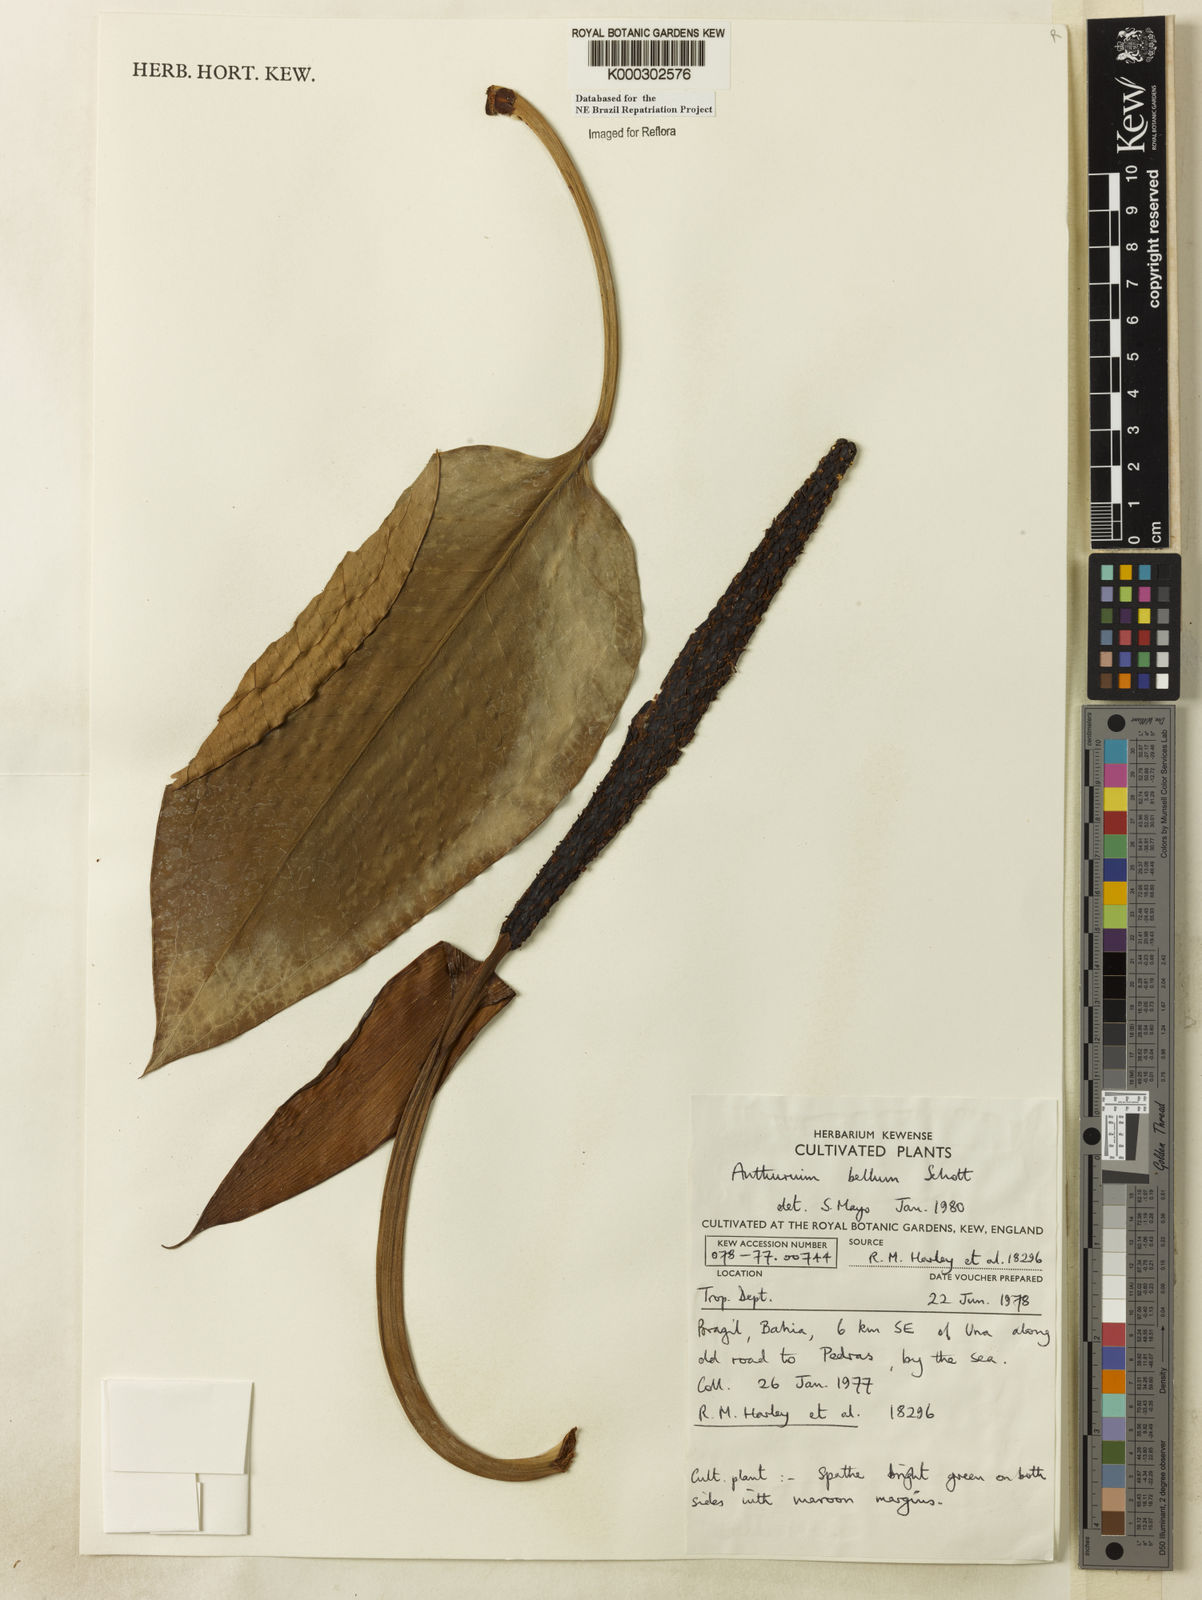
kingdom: Plantae
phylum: Tracheophyta
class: Liliopsida
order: Alismatales
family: Araceae
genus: Anthurium
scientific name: Anthurium bellum
